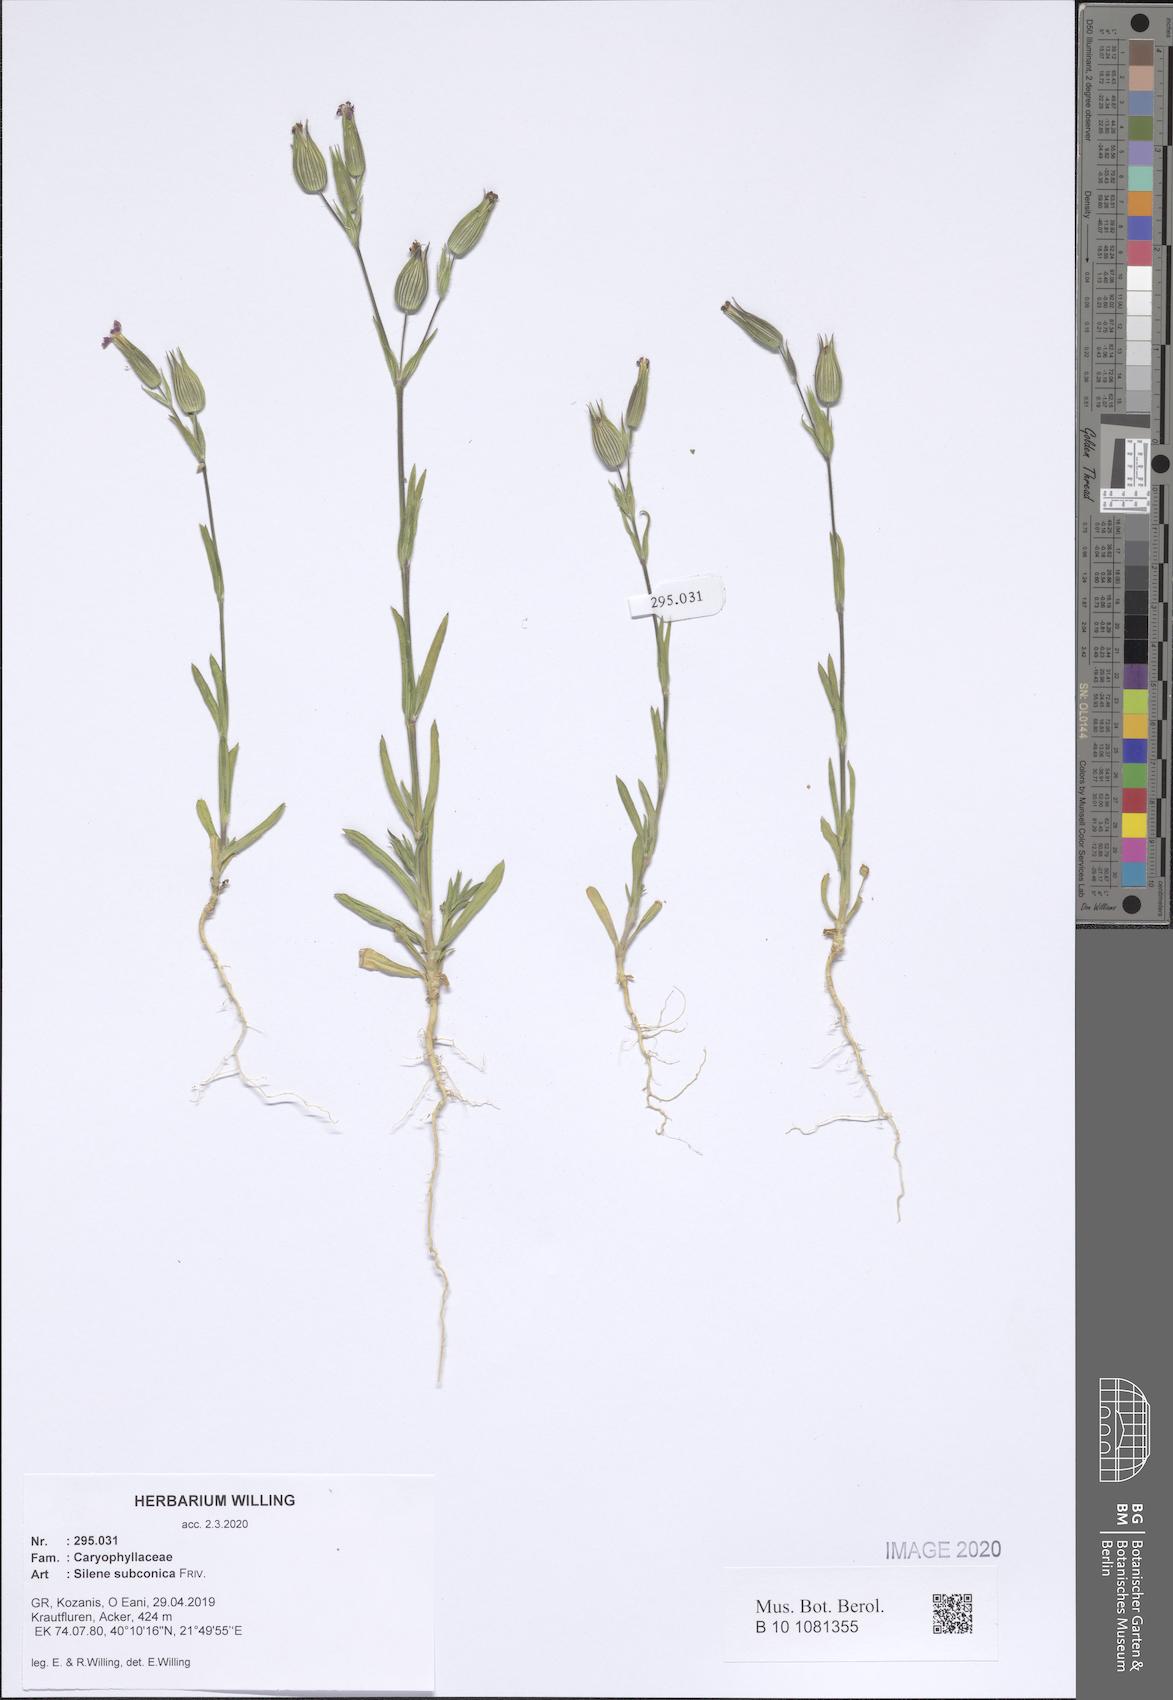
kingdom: Plantae
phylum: Tracheophyta
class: Magnoliopsida
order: Caryophyllales
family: Caryophyllaceae
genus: Silene
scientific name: Silene subconica
